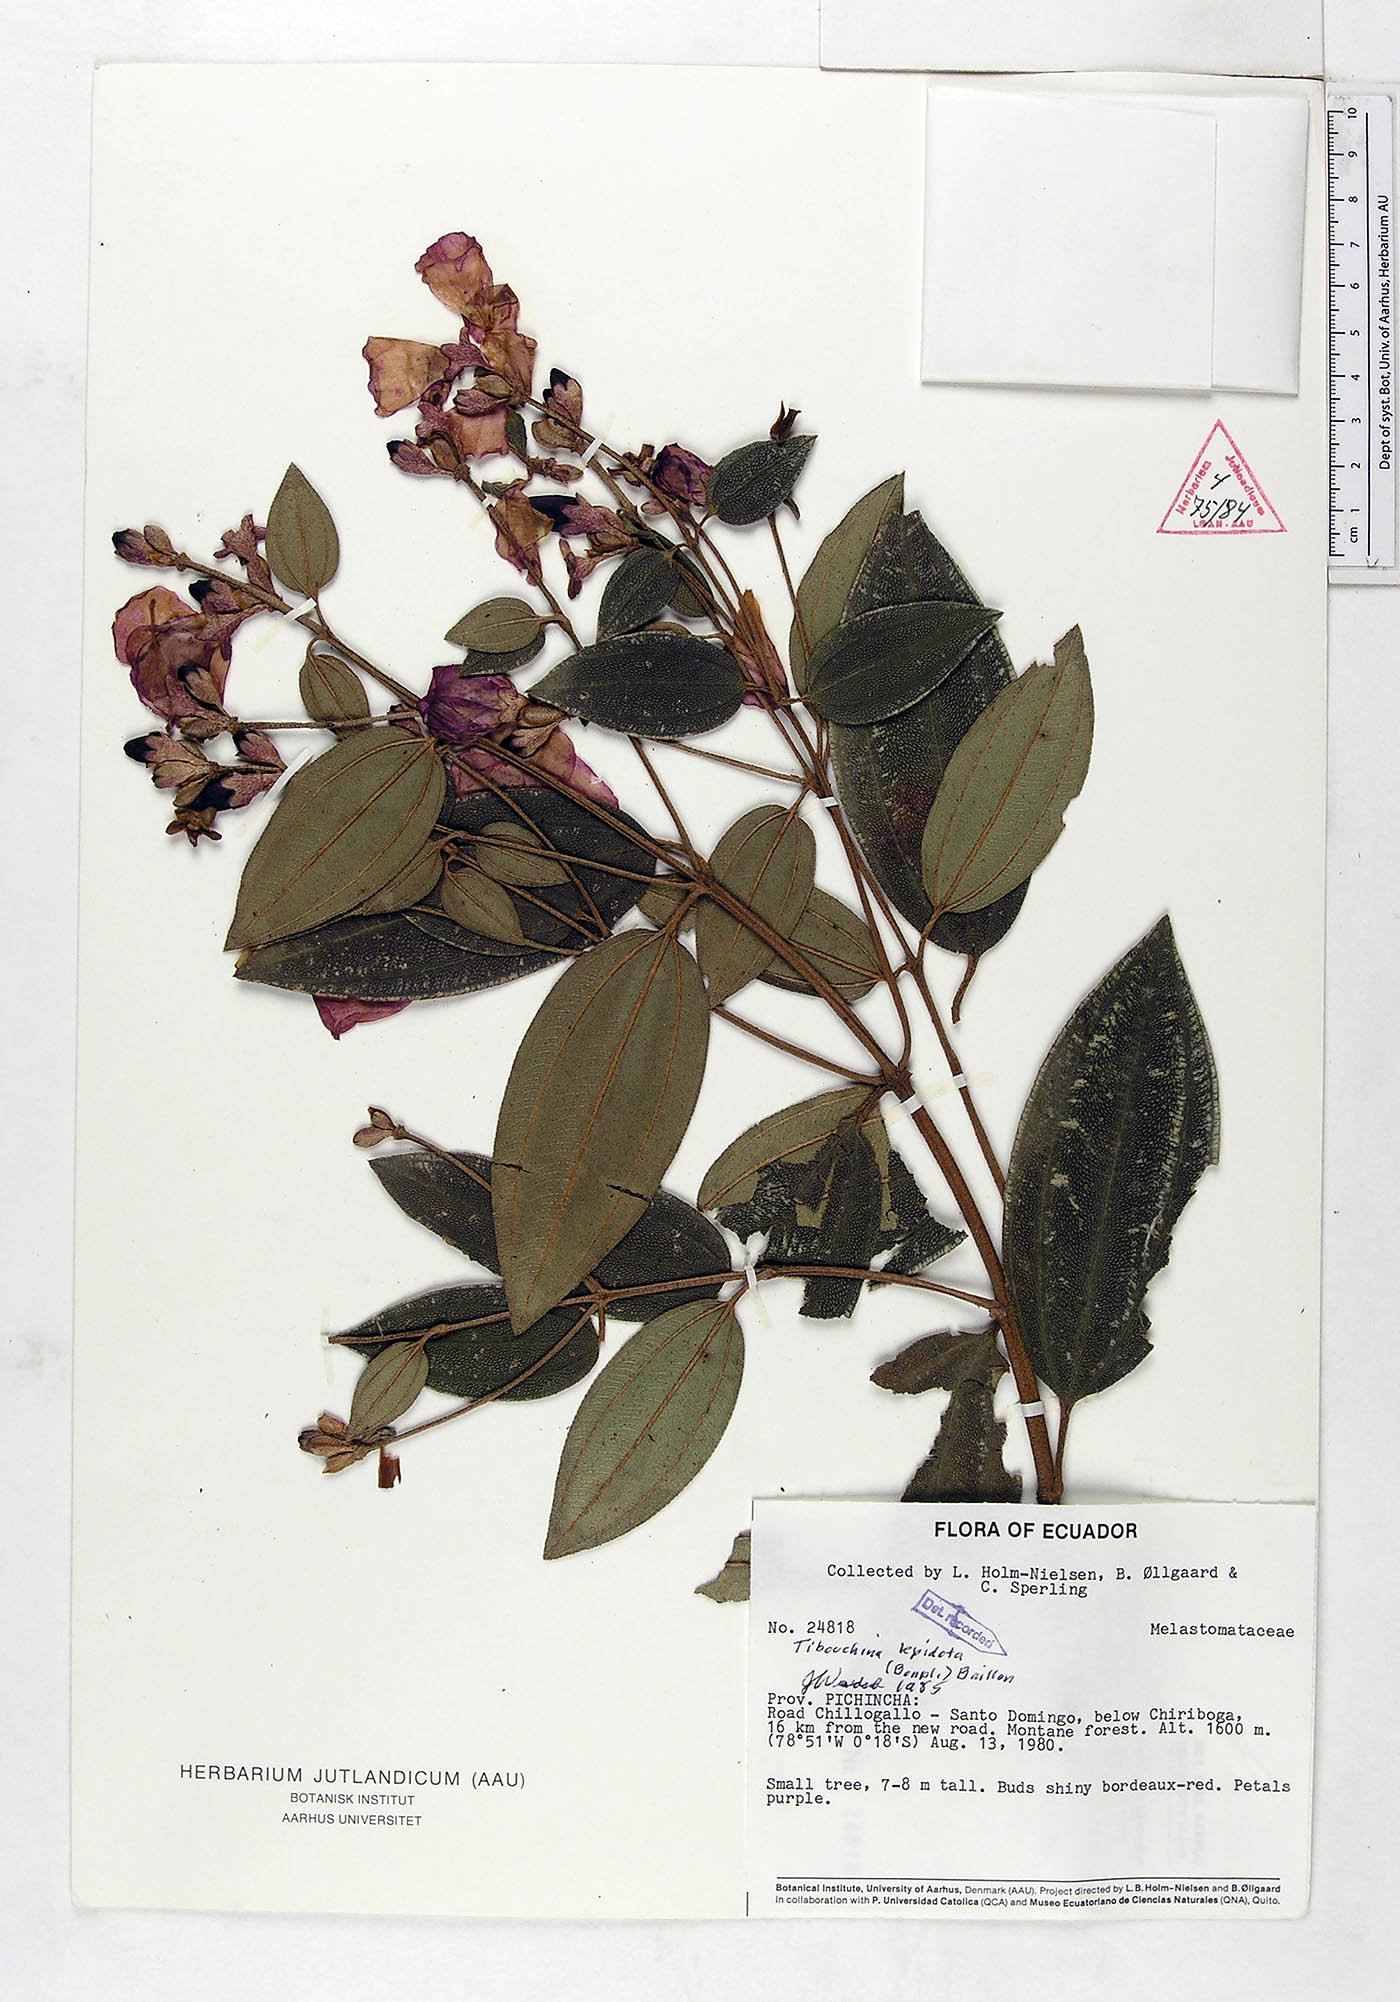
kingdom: Plantae
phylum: Tracheophyta
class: Magnoliopsida
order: Myrtales
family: Melastomataceae
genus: Andesanthus
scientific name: Andesanthus lepidotus
